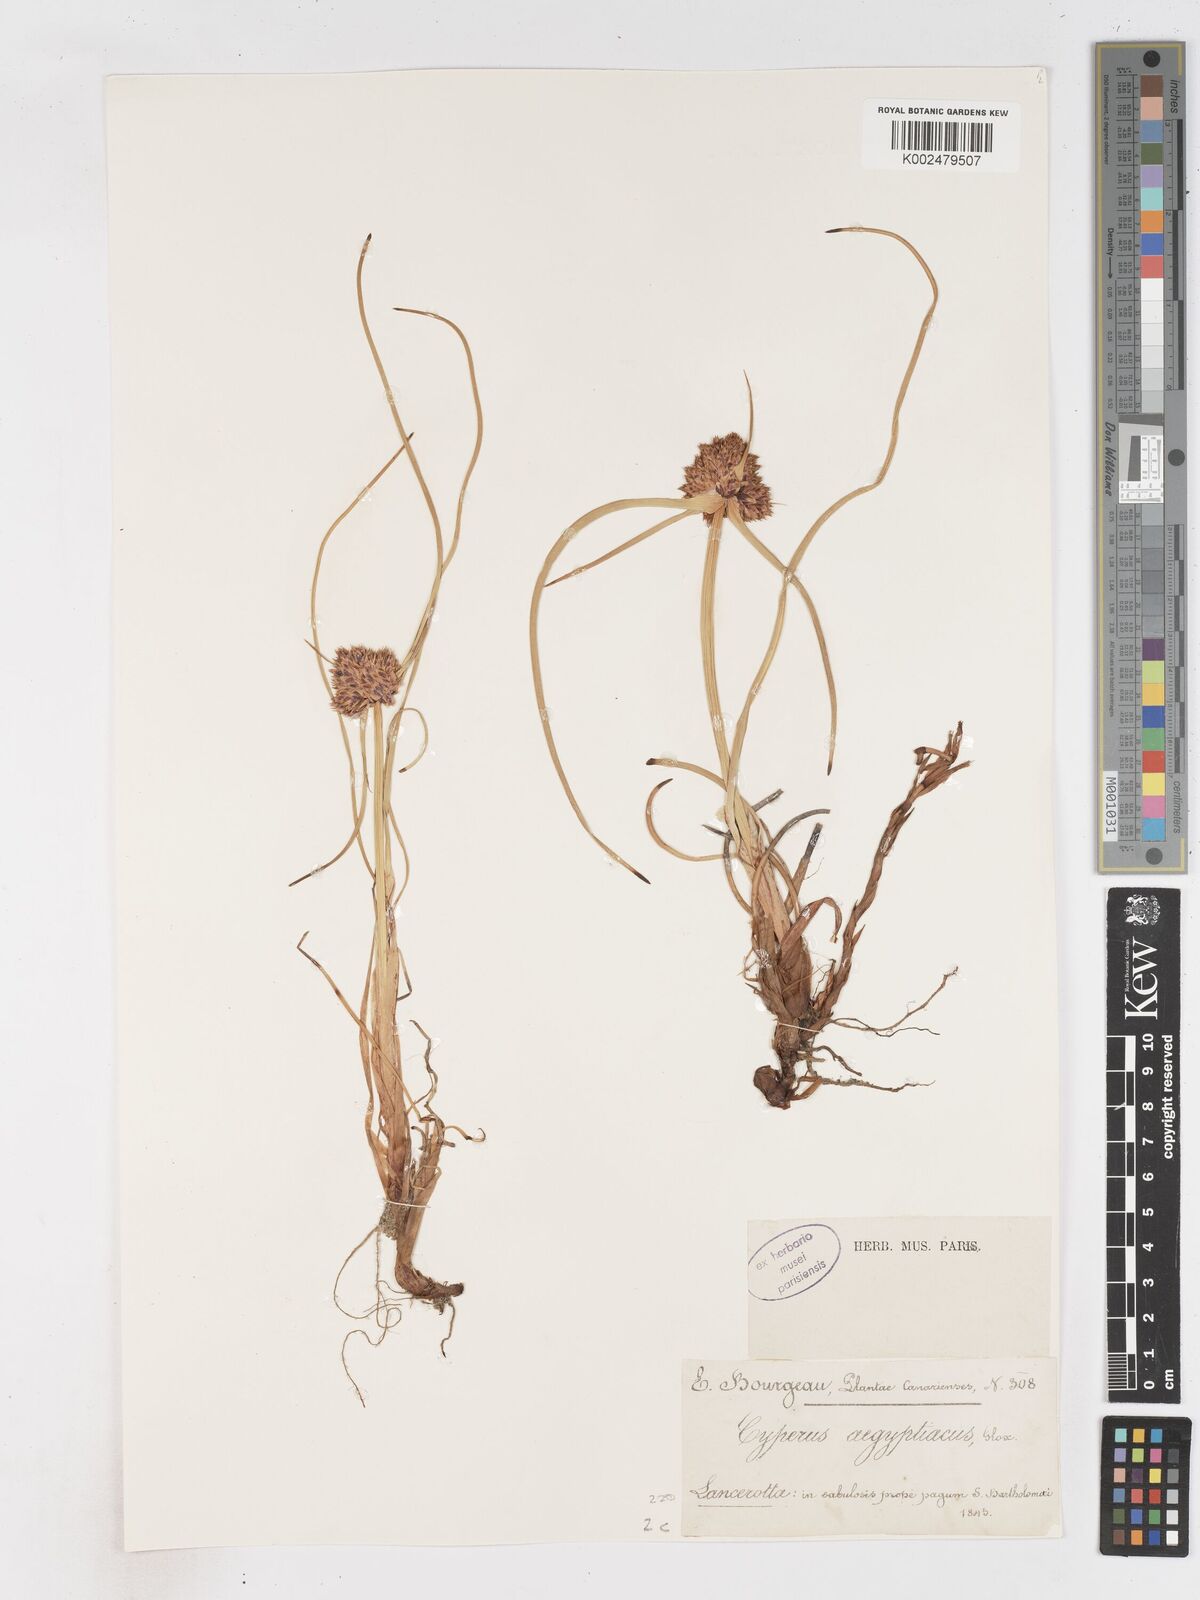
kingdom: Plantae
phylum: Tracheophyta
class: Liliopsida
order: Poales
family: Cyperaceae
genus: Cyperus
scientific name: Cyperus capitatus
